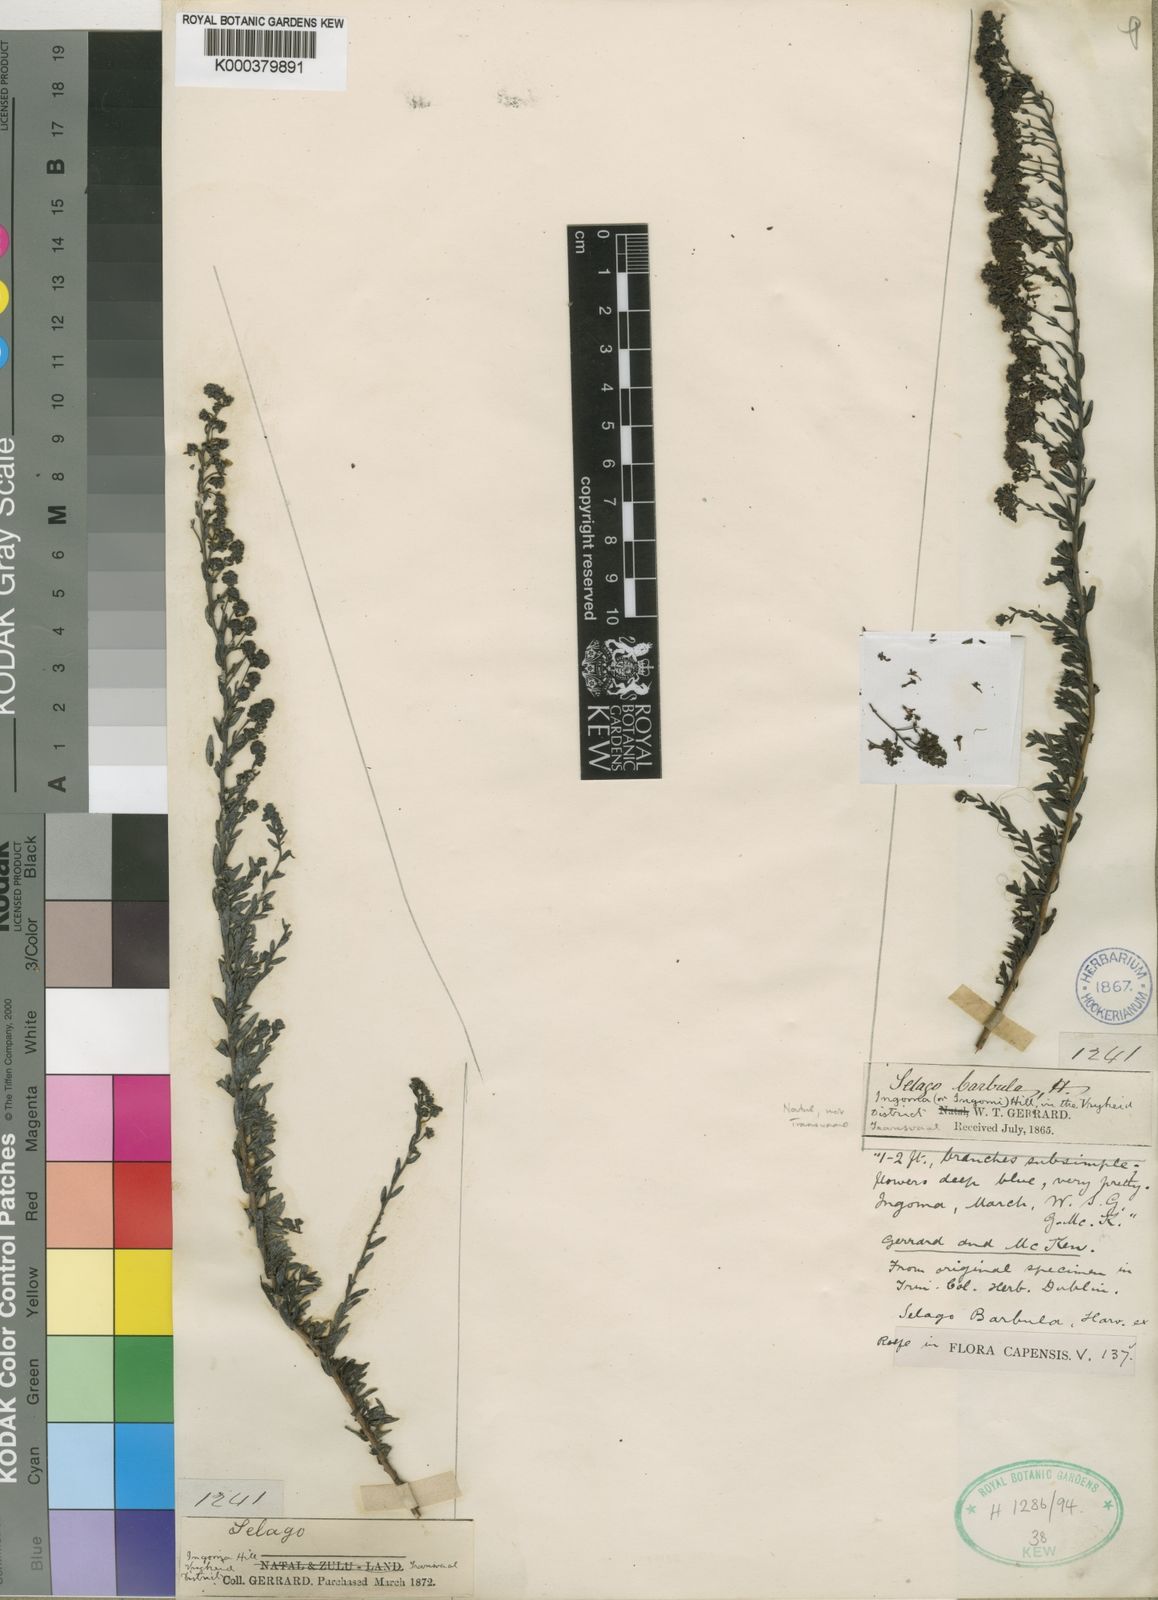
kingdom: Plantae
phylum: Tracheophyta
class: Magnoliopsida
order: Lamiales
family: Scrophulariaceae
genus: Selago
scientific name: Selago barbula
